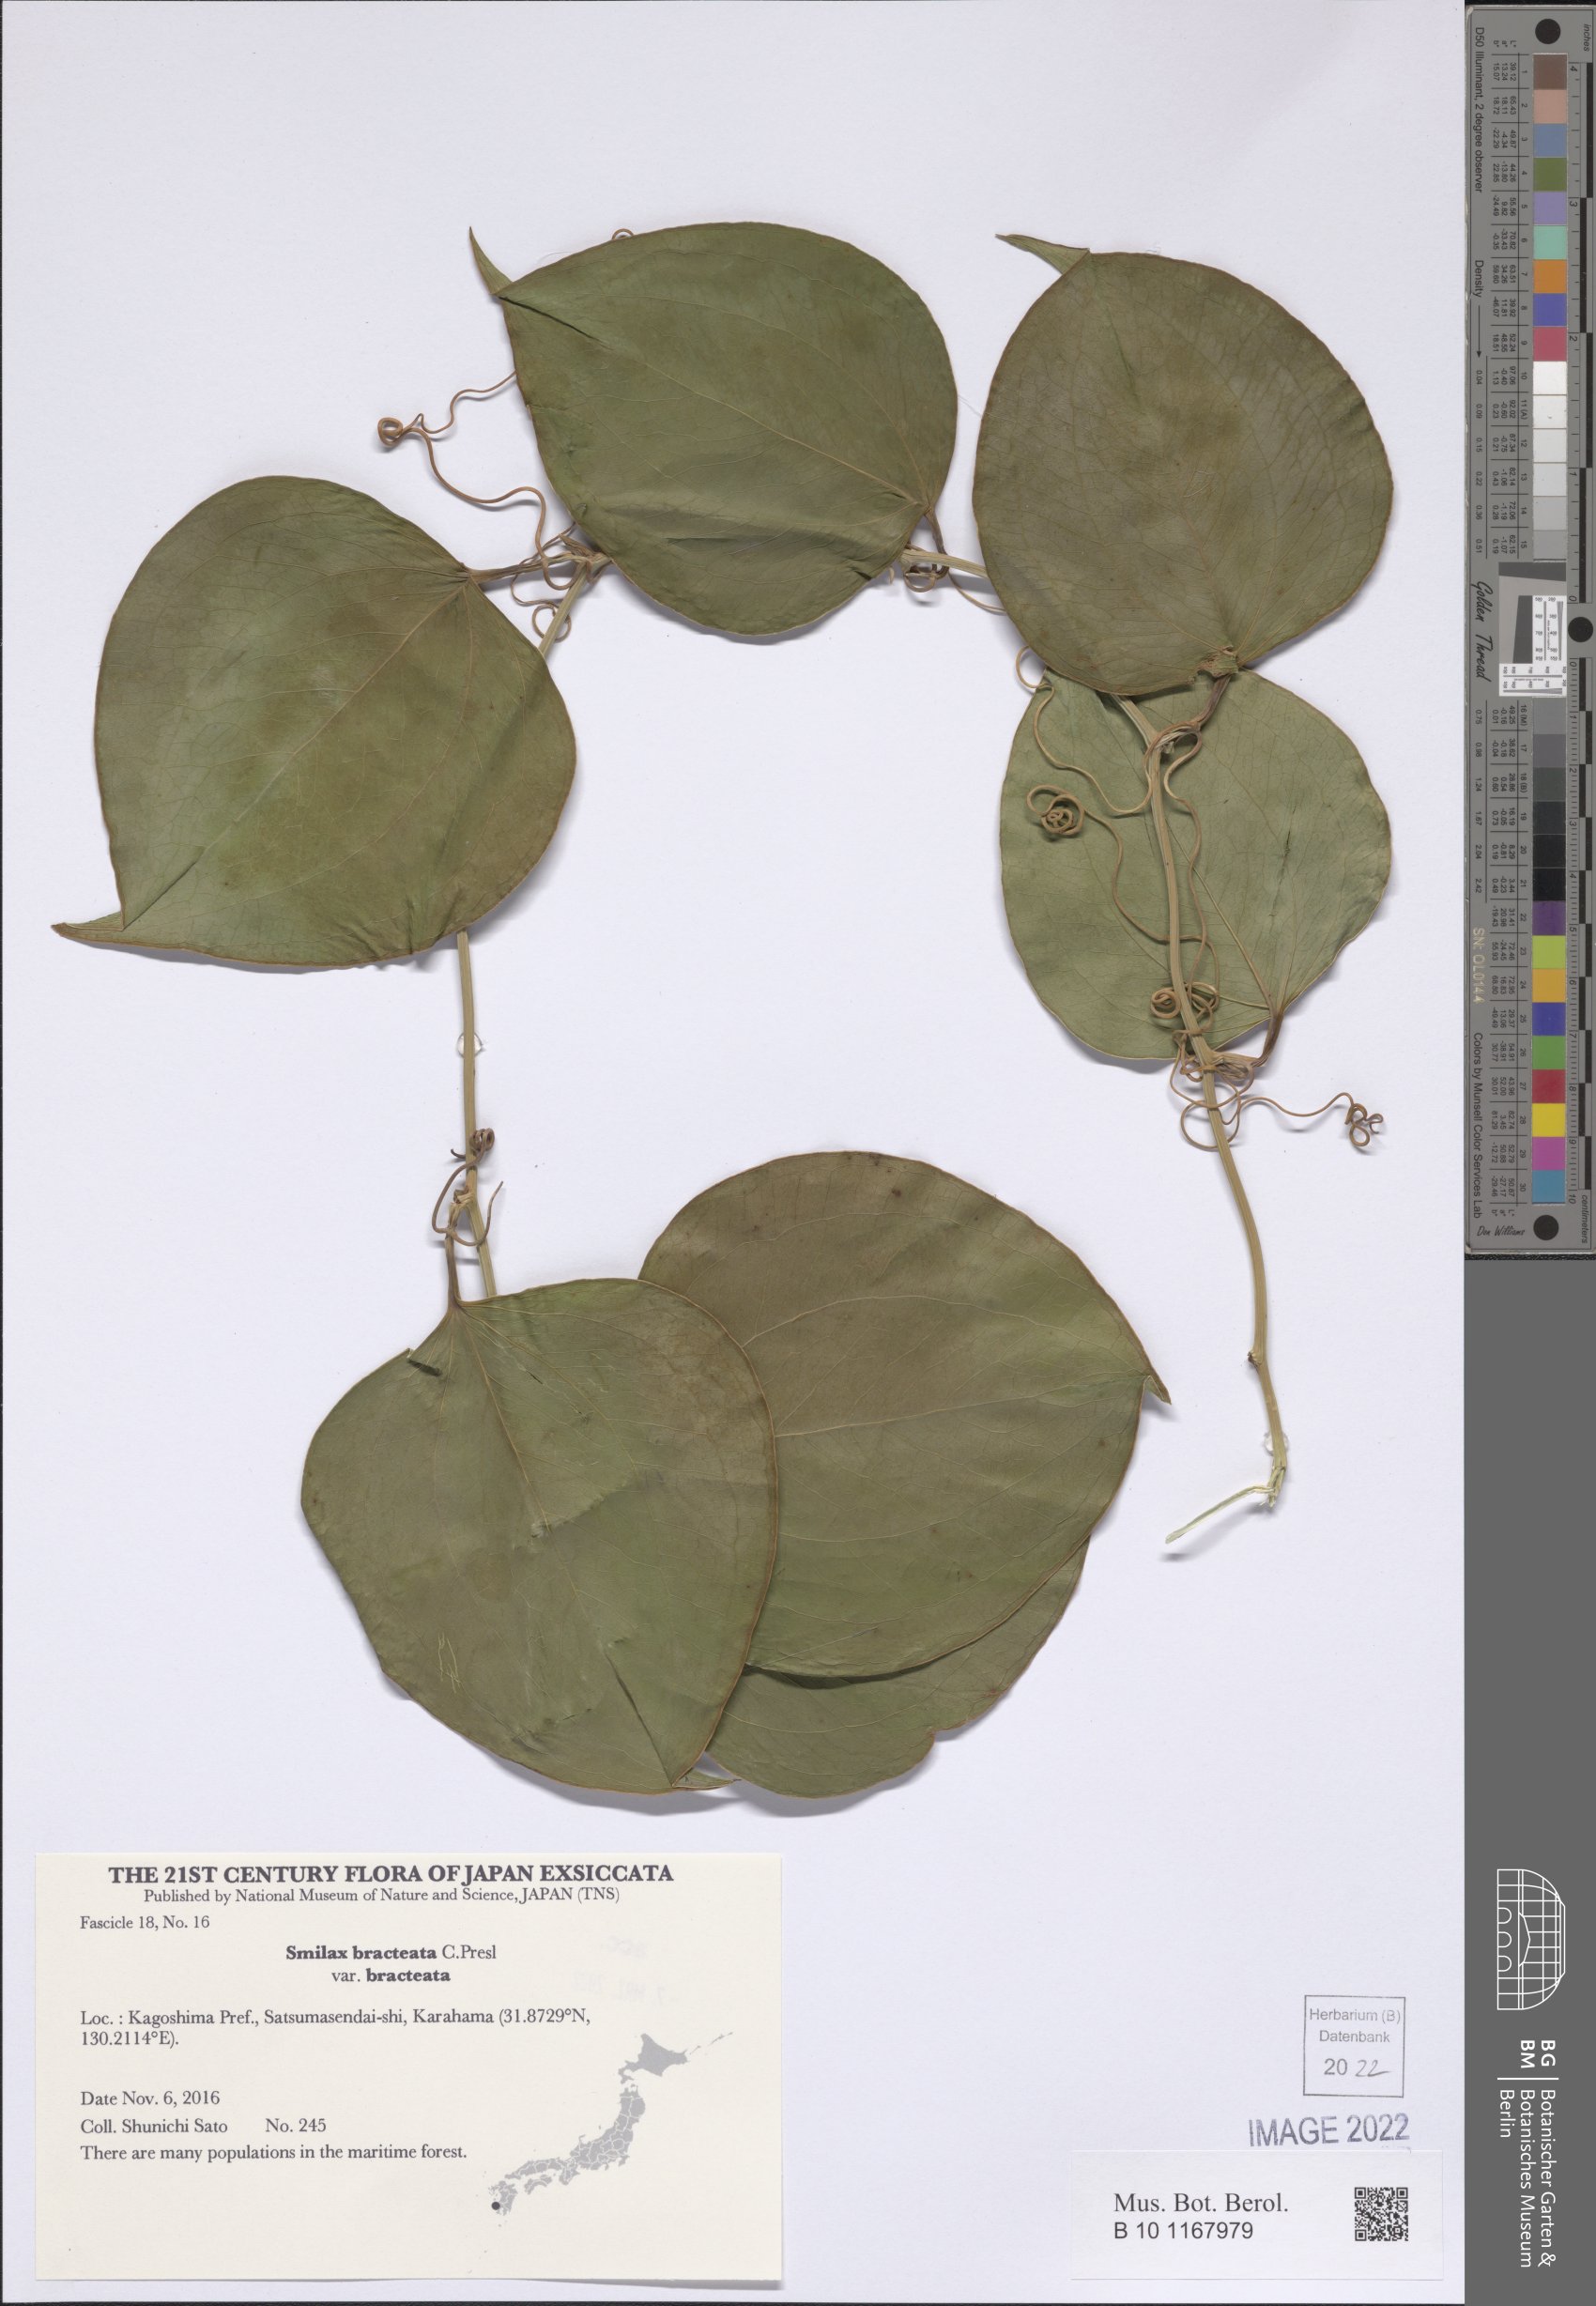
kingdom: Plantae
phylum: Tracheophyta
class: Liliopsida
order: Liliales
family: Smilacaceae
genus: Smilax
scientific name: Smilax bracteata
